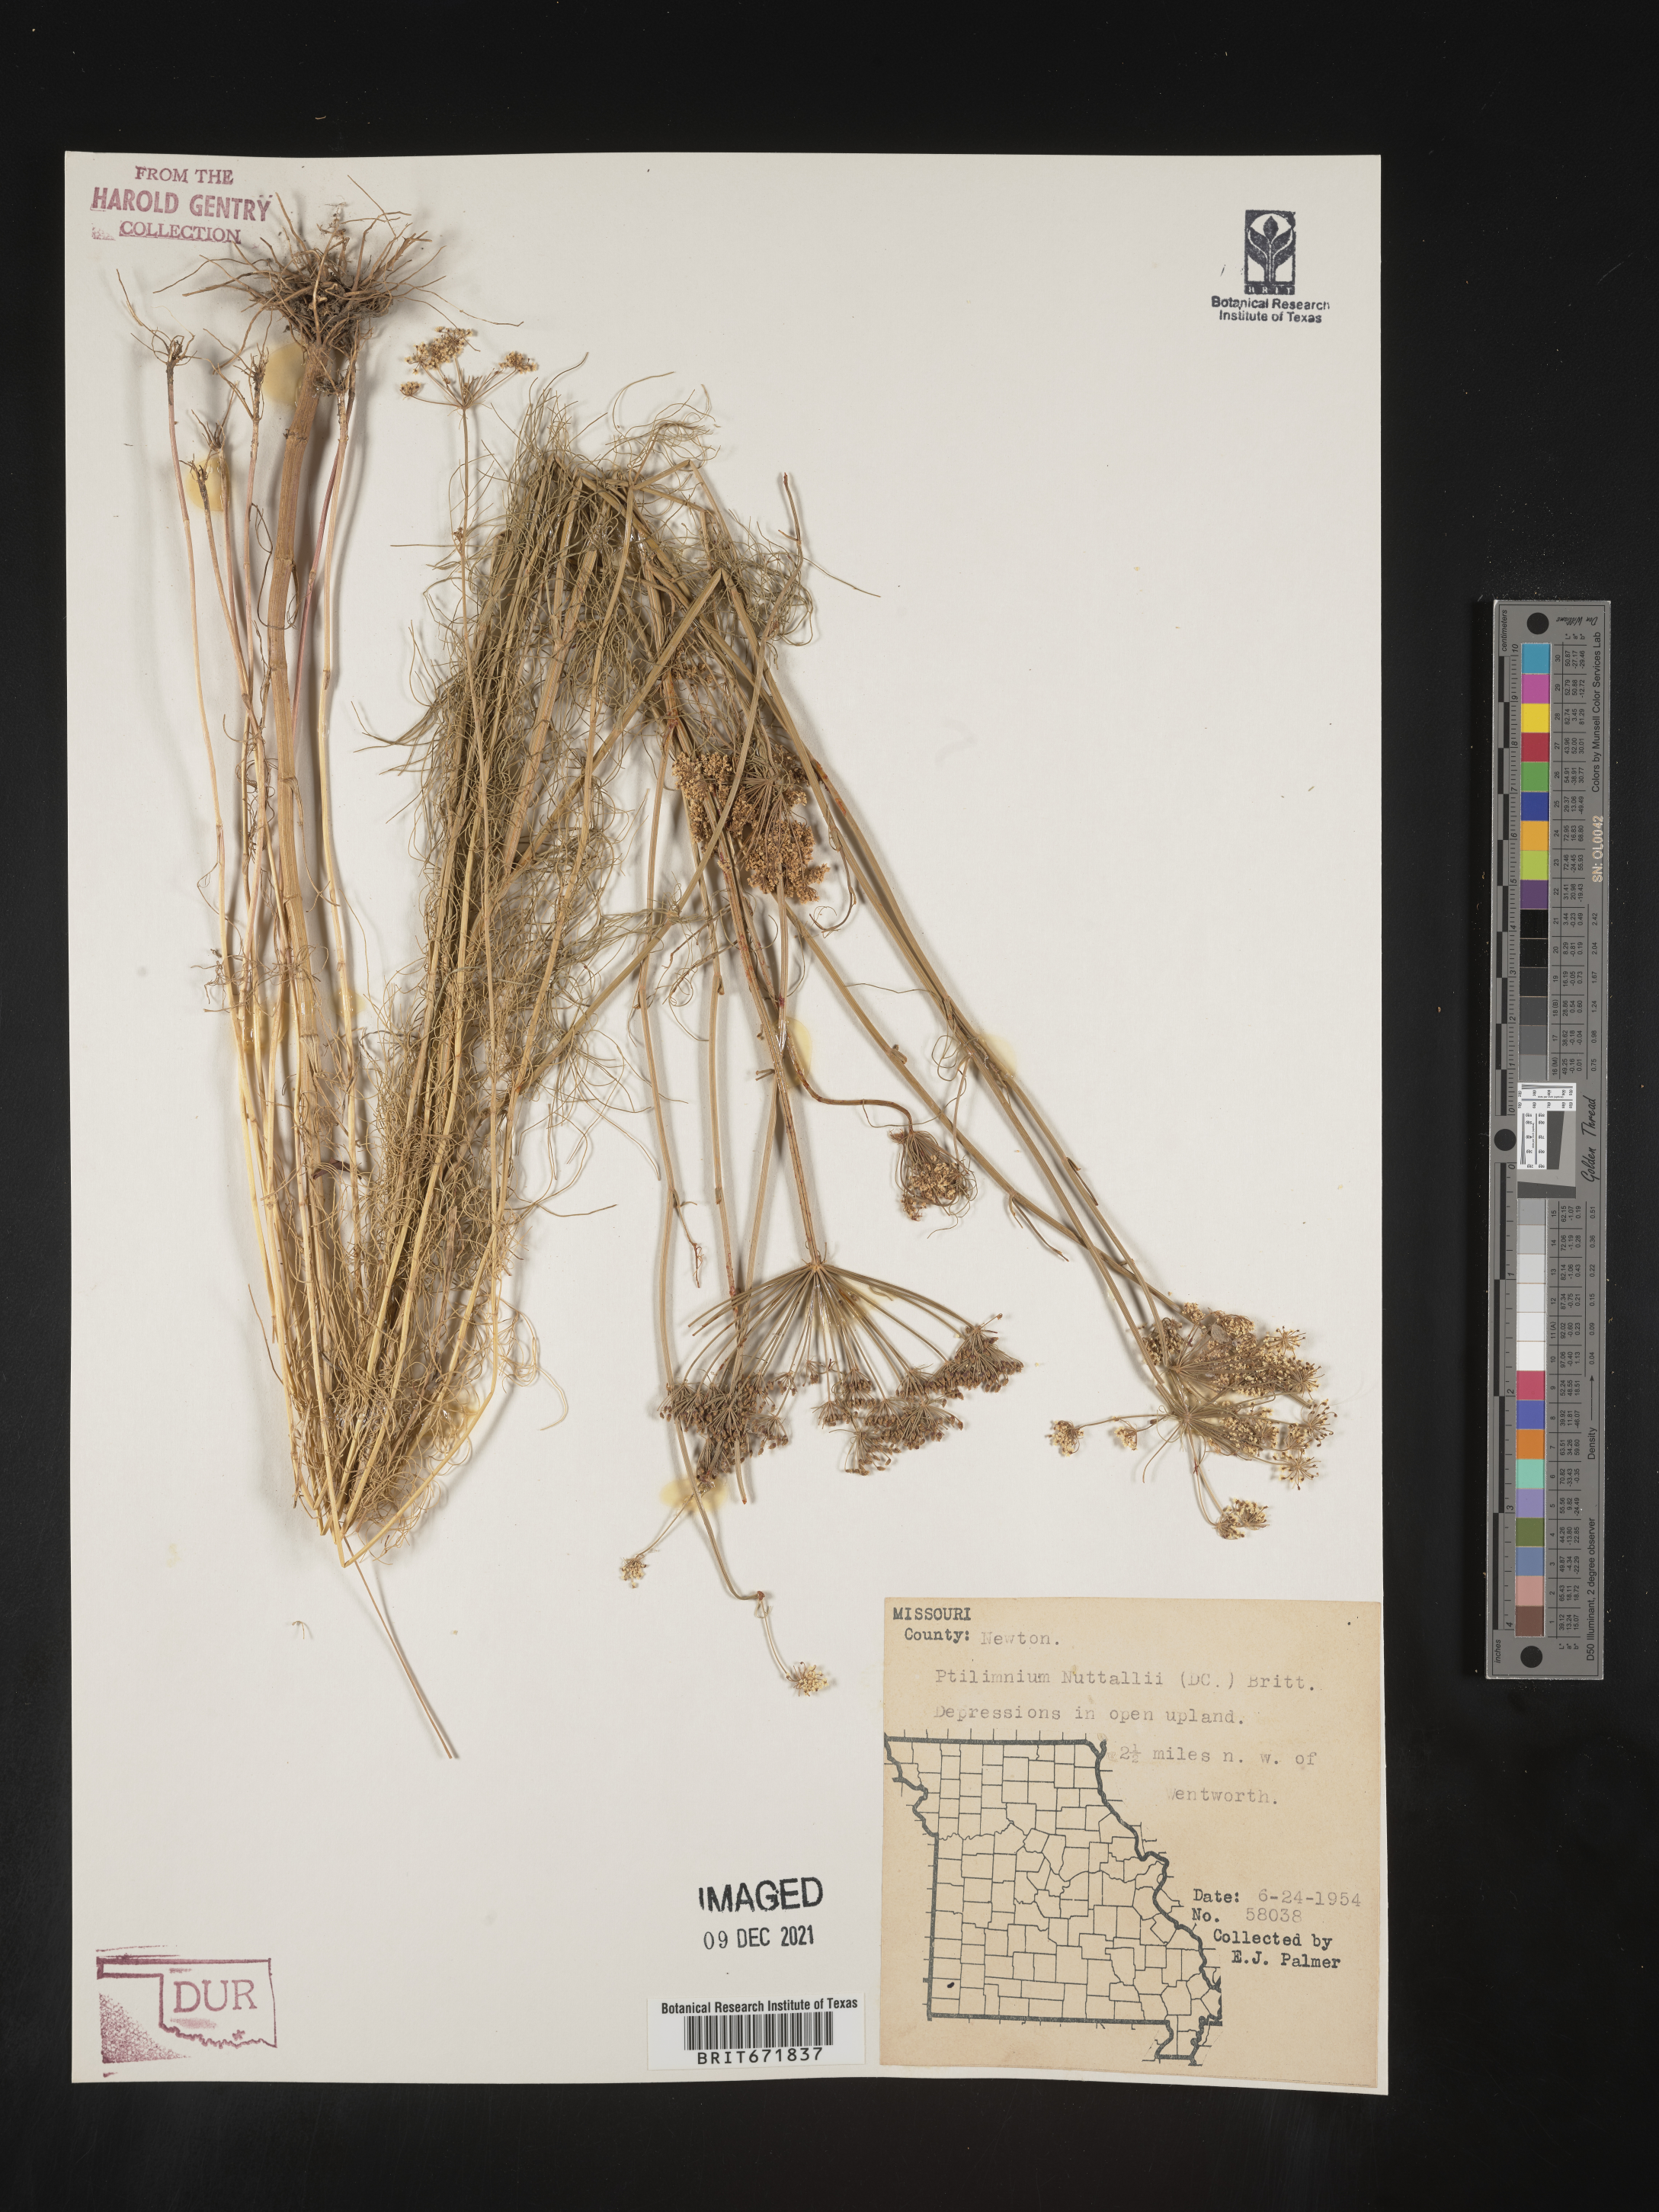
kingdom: Plantae
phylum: Tracheophyta
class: Magnoliopsida
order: Apiales
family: Apiaceae
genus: Ptilimnium
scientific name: Ptilimnium nuttallii
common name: Ozark bishop's-weed
